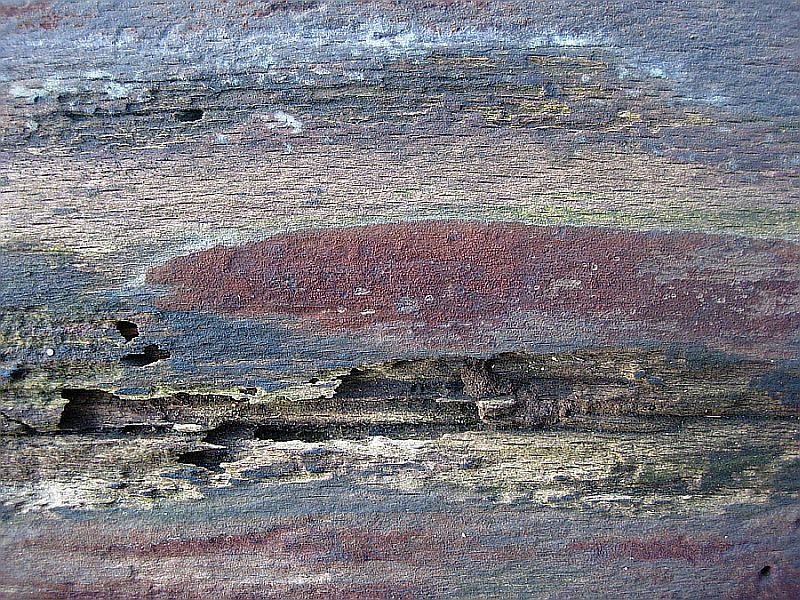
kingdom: Fungi
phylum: Ascomycota
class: Sordariomycetes
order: Xylariales
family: Hypoxylaceae
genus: Hypoxylon
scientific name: Hypoxylon macrocarpum
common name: skorpe-kulbær
